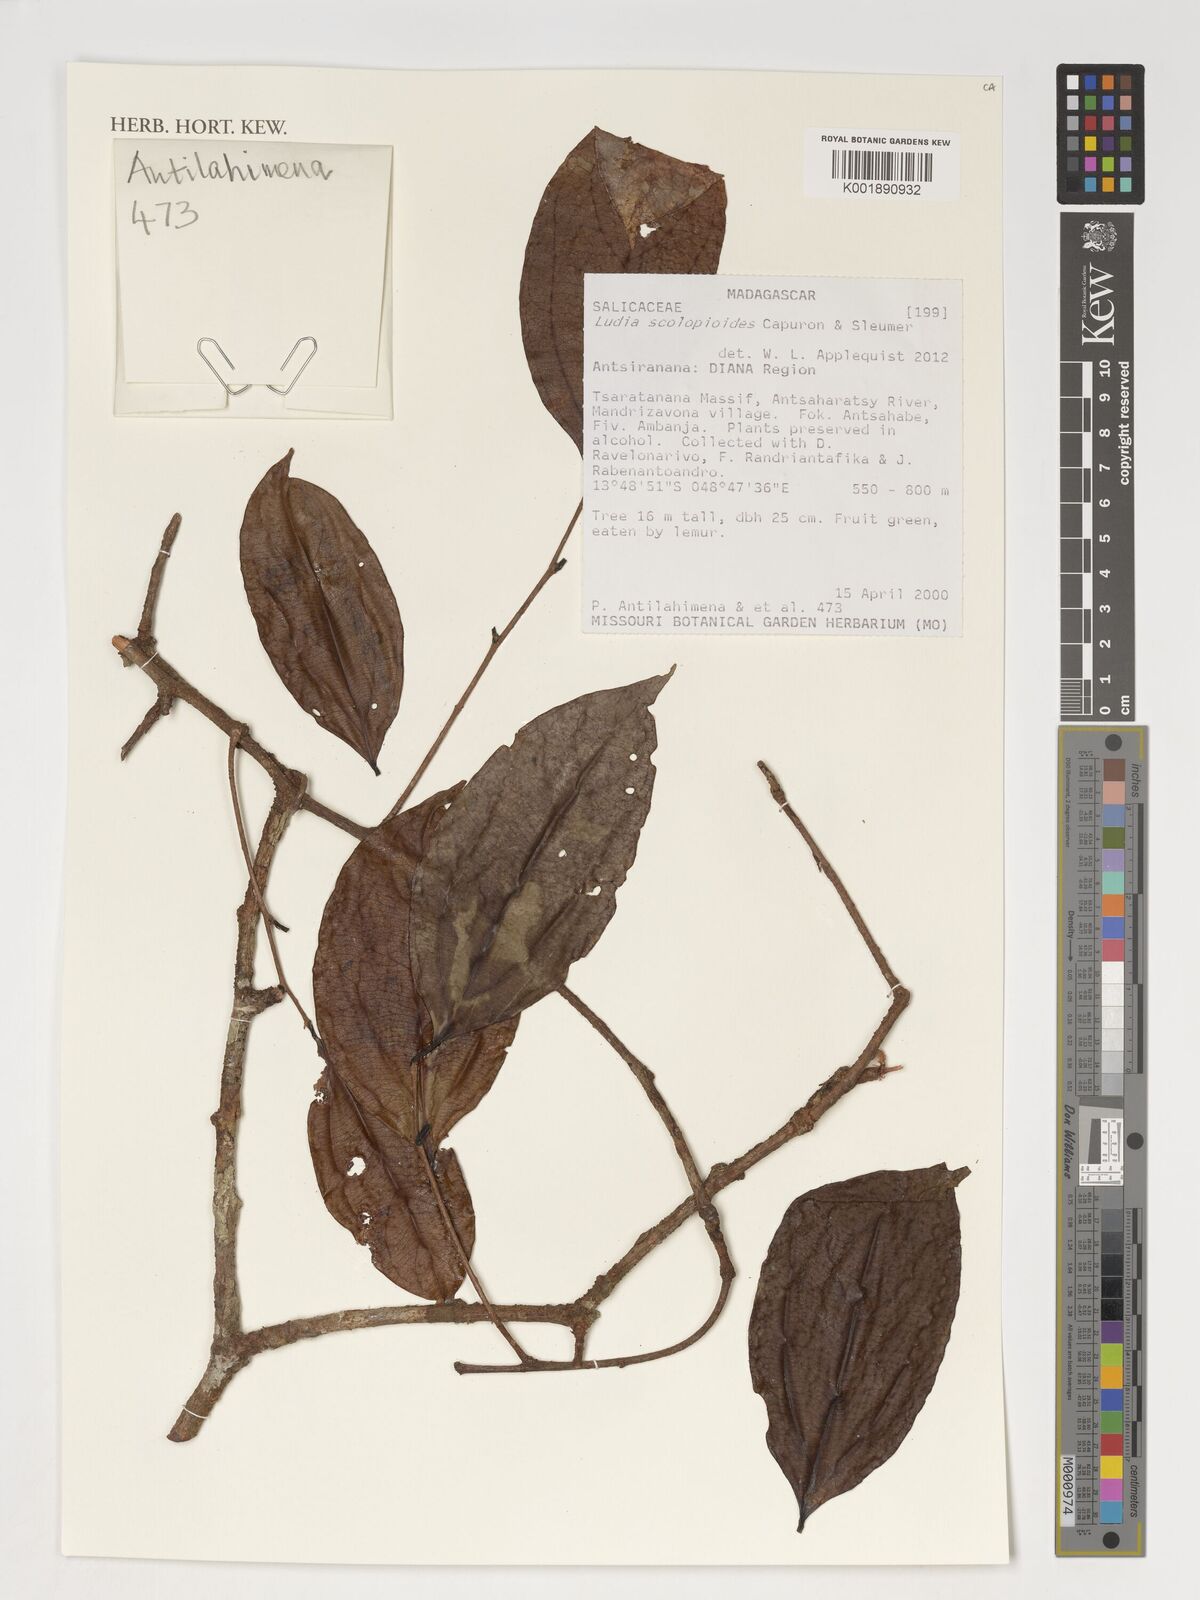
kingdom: Plantae
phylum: Tracheophyta
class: Magnoliopsida
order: Malpighiales
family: Salicaceae
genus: Ludia
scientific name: Ludia scolopioides
